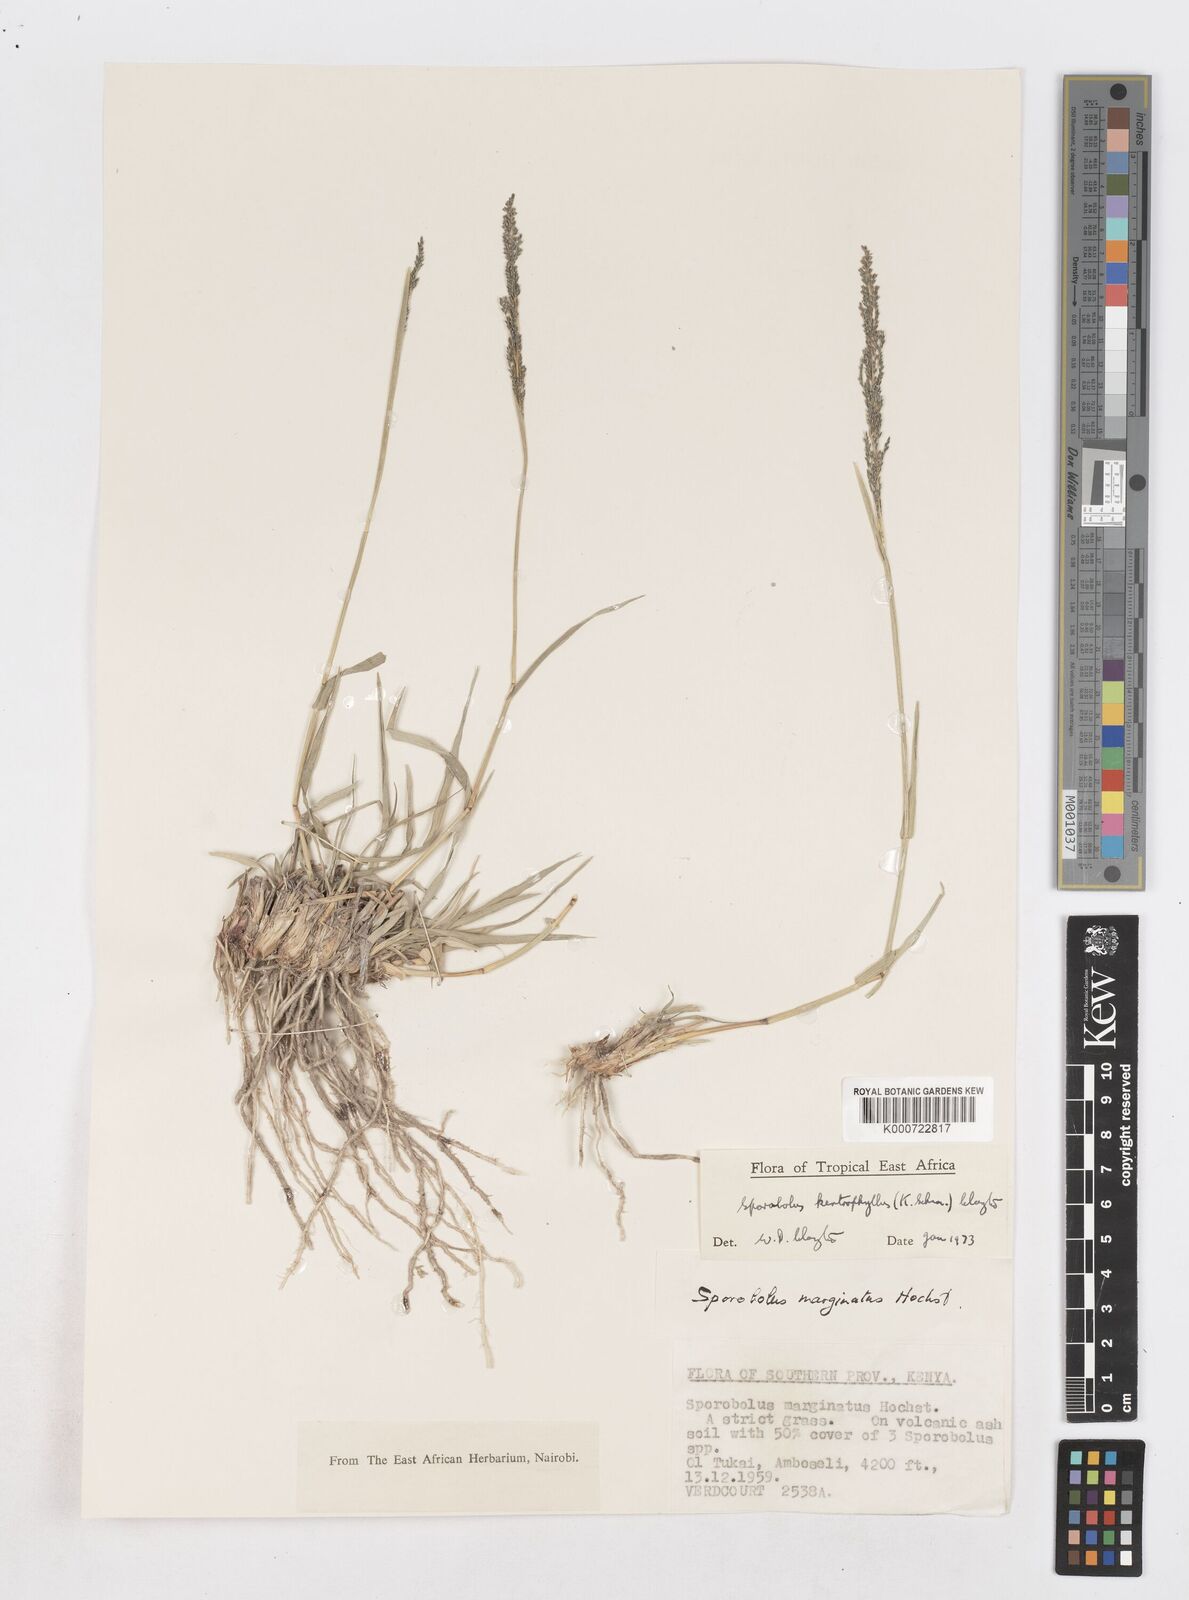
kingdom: Plantae
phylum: Tracheophyta
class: Liliopsida
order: Poales
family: Poaceae
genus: Sporobolus
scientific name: Sporobolus ioclados
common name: Pan dropseed
